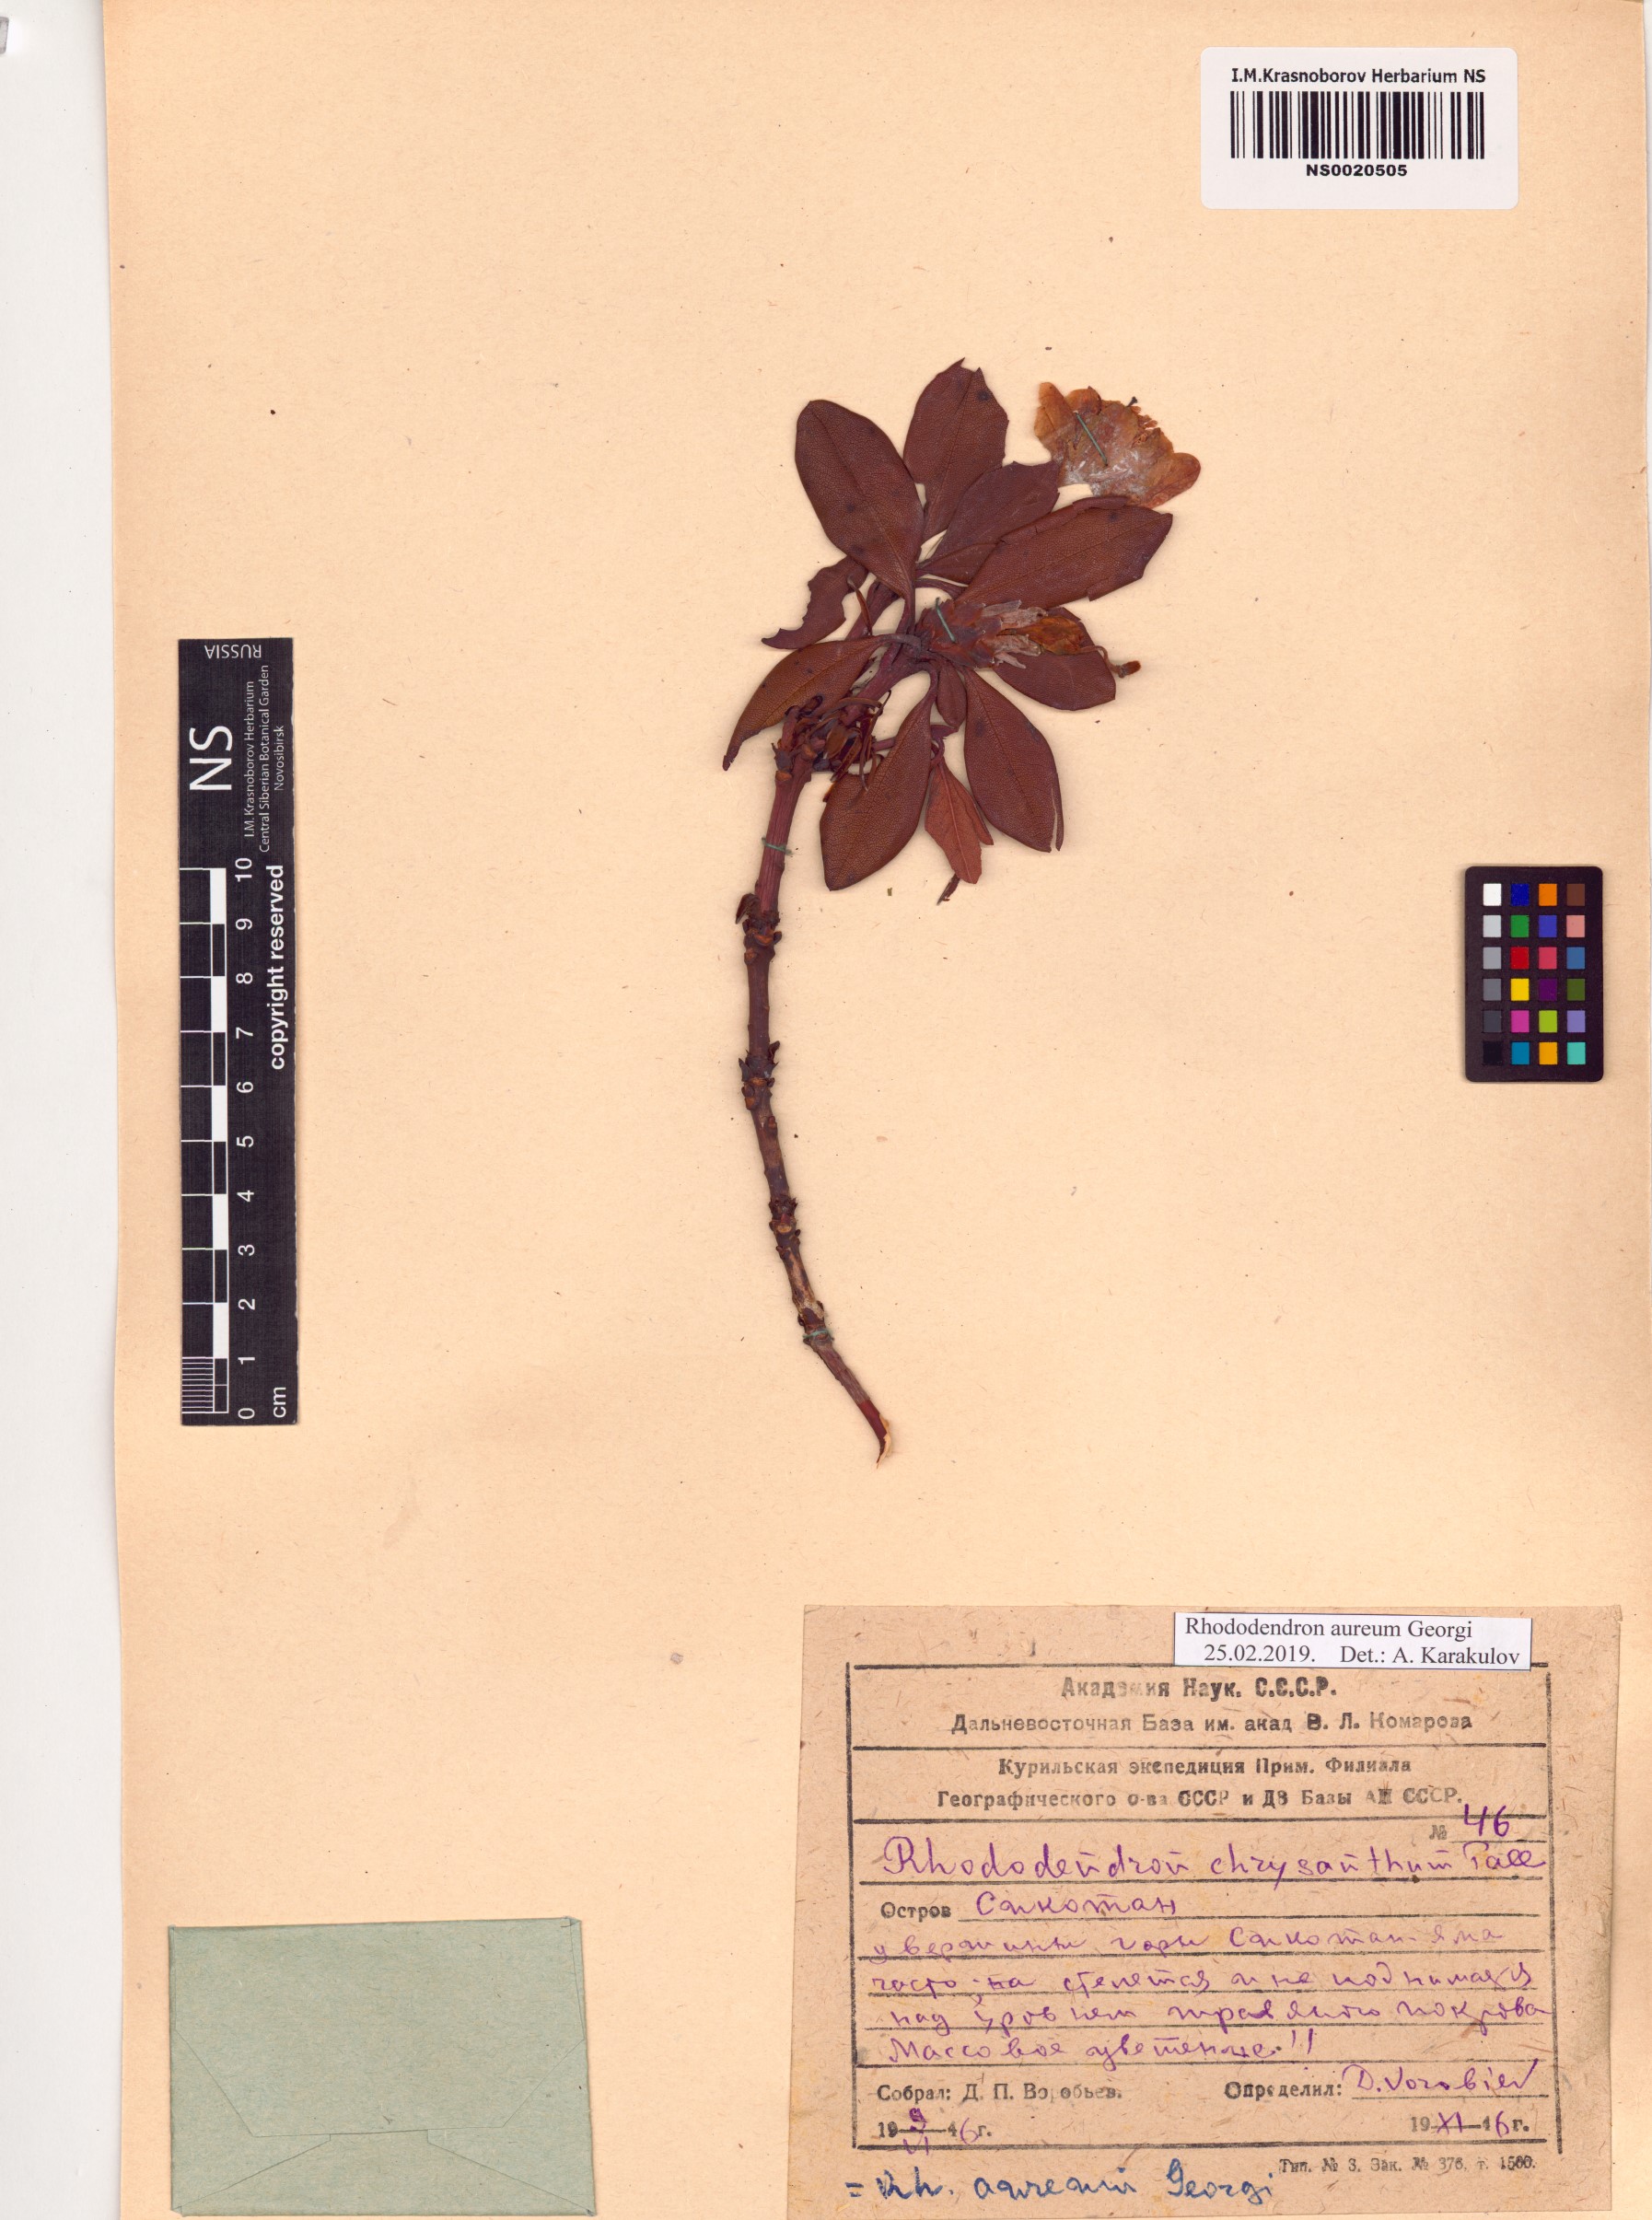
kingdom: Plantae
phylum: Tracheophyta
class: Magnoliopsida
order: Ericales
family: Ericaceae
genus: Rhododendron
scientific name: Rhododendron aureum
